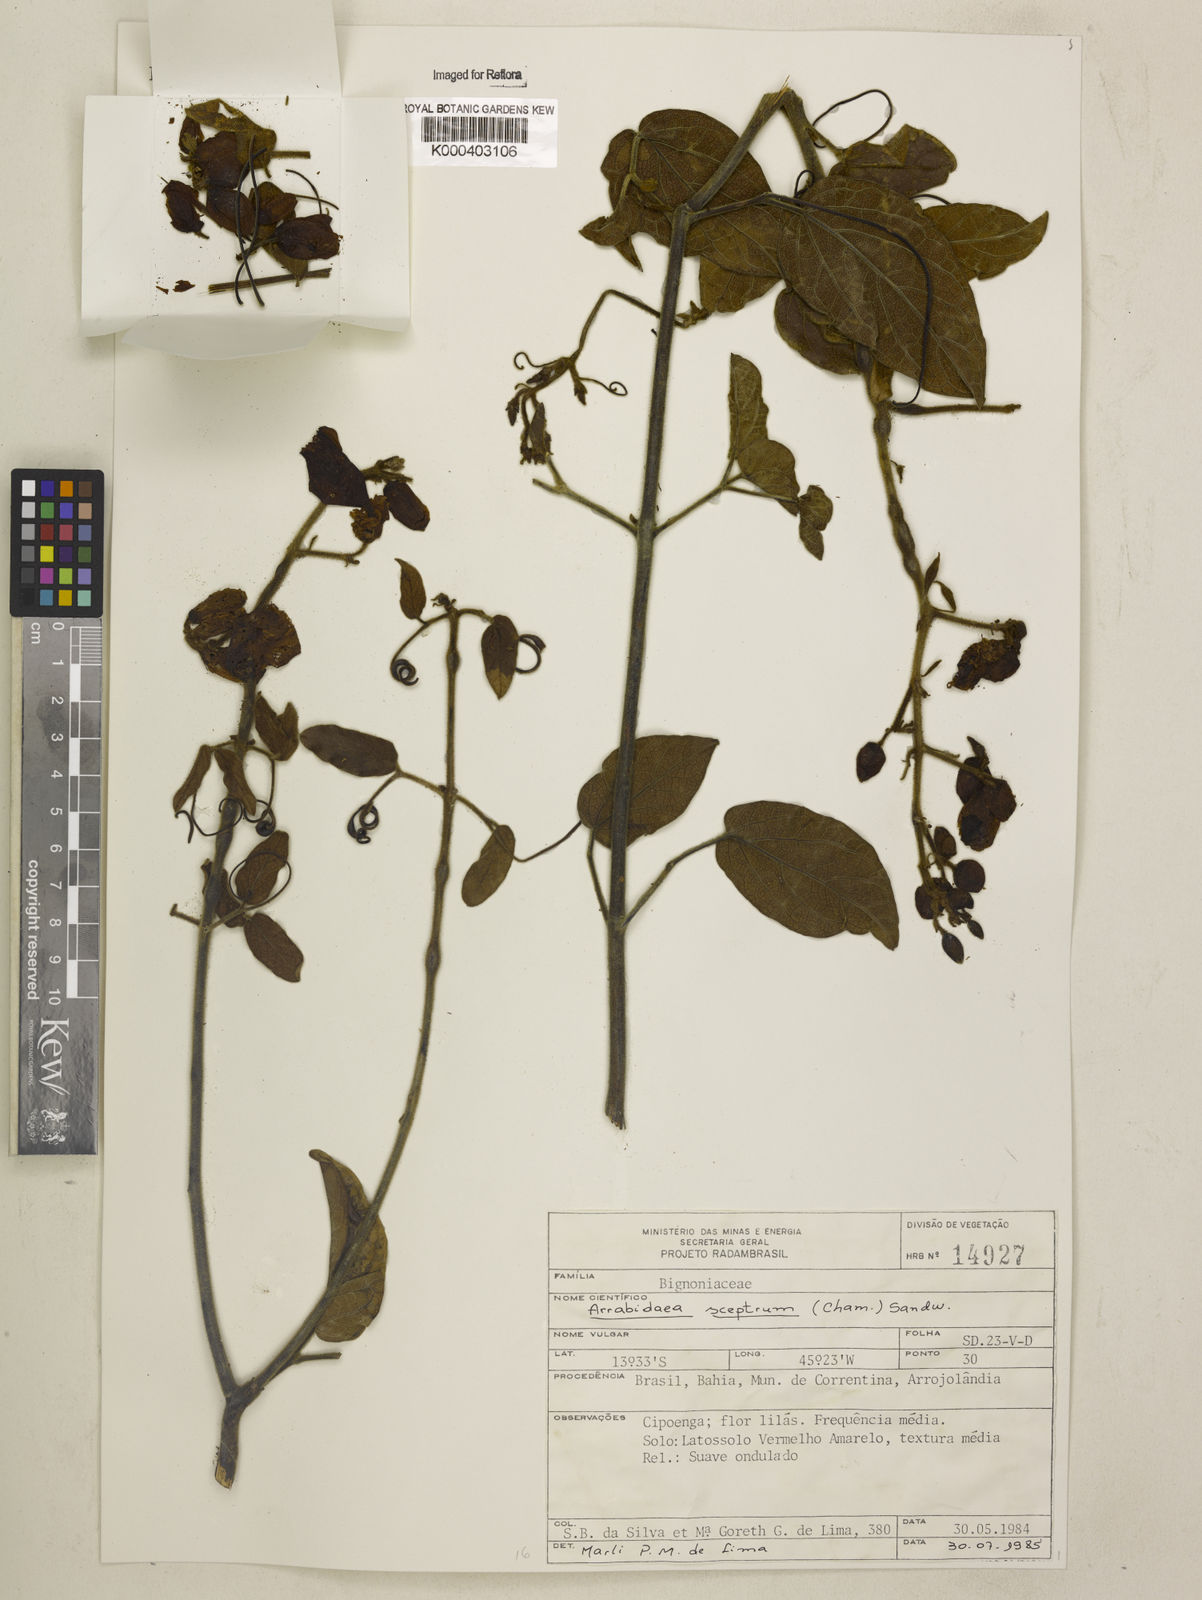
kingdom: Plantae
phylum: Tracheophyta
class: Magnoliopsida
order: Lamiales
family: Bignoniaceae
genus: Cuspidaria
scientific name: Cuspidaria sceptrum
